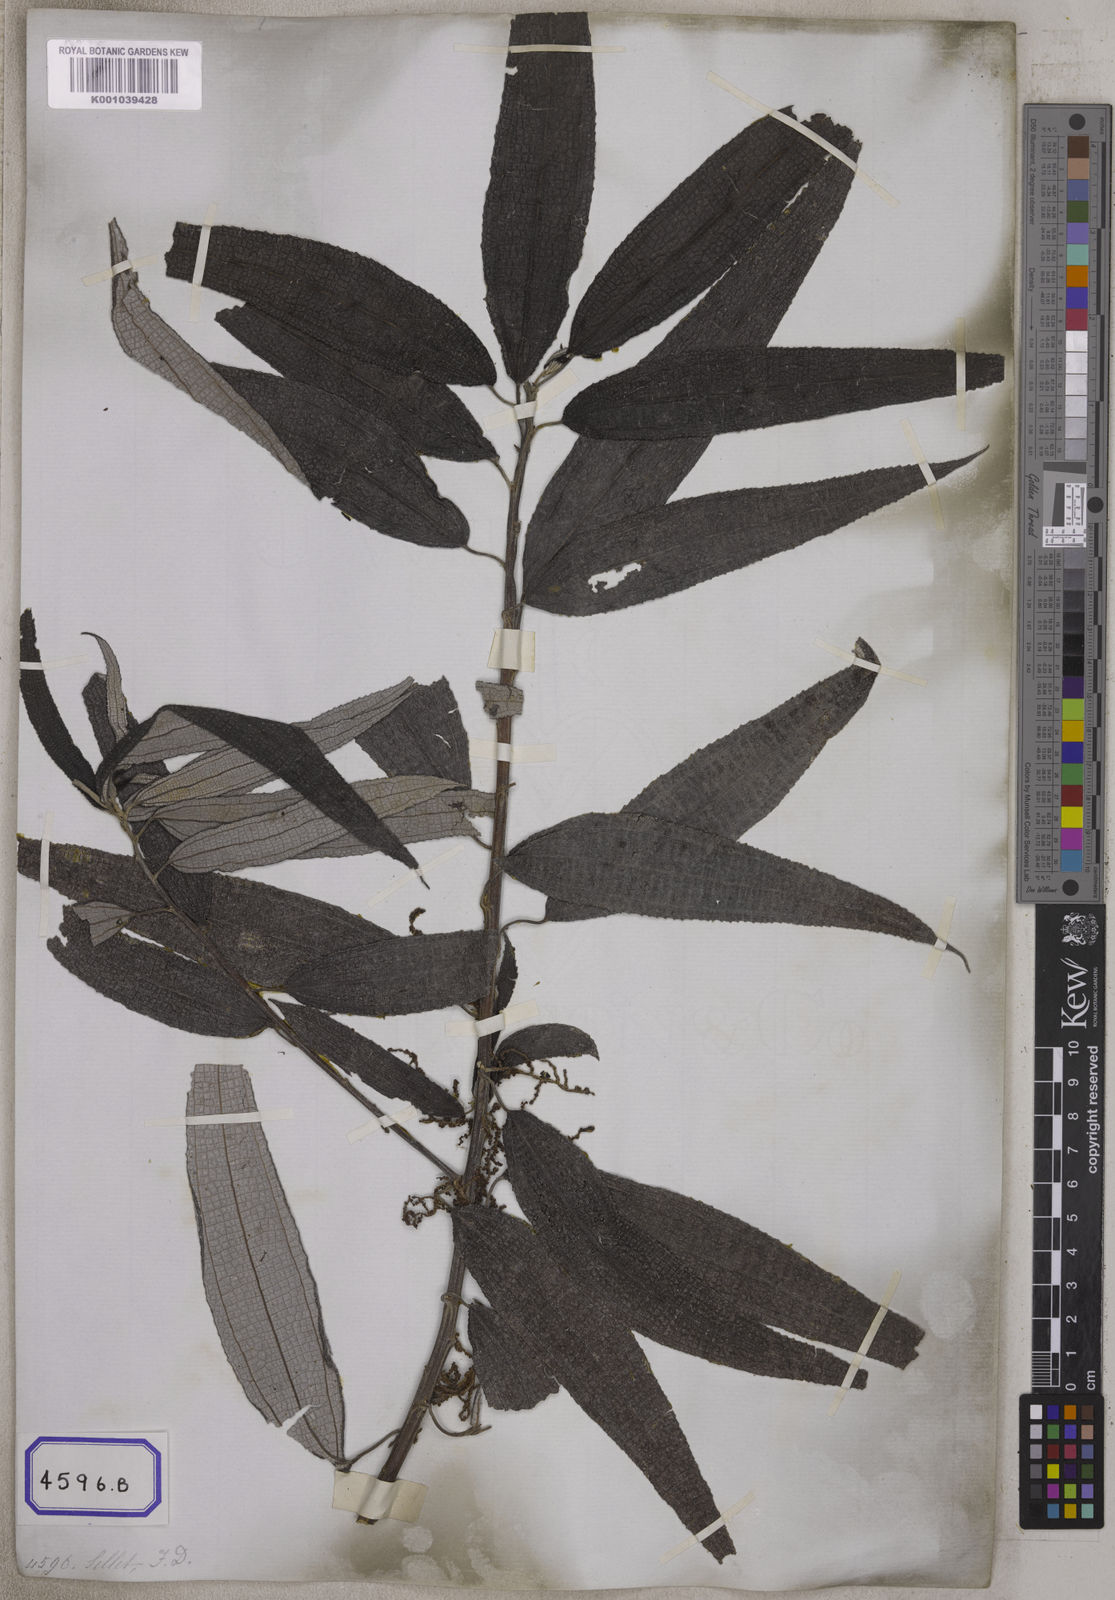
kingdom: Plantae
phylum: Tracheophyta
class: Magnoliopsida
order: Rosales
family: Urticaceae
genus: Boehmeria
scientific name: Boehmeria virgata
